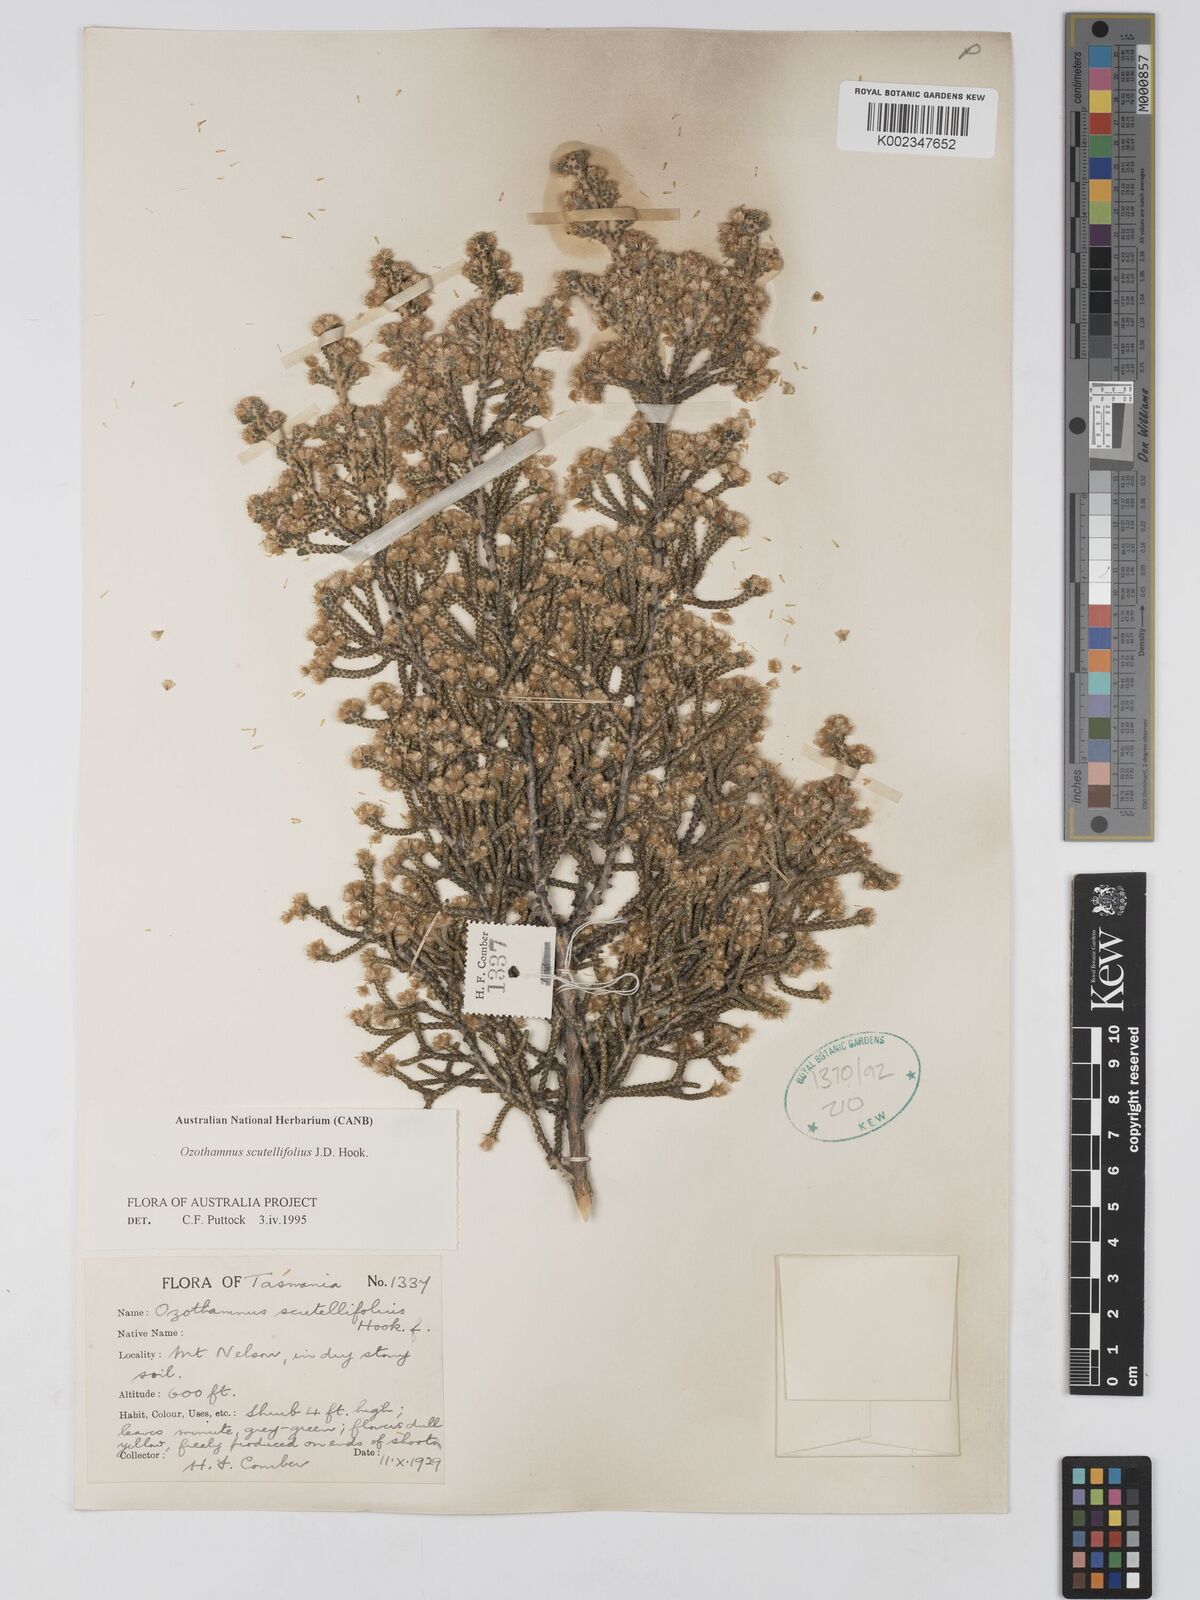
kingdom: Plantae
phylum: Tracheophyta
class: Magnoliopsida
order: Asterales
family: Asteraceae
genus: Ozothamnus
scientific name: Ozothamnus scutellifolius
